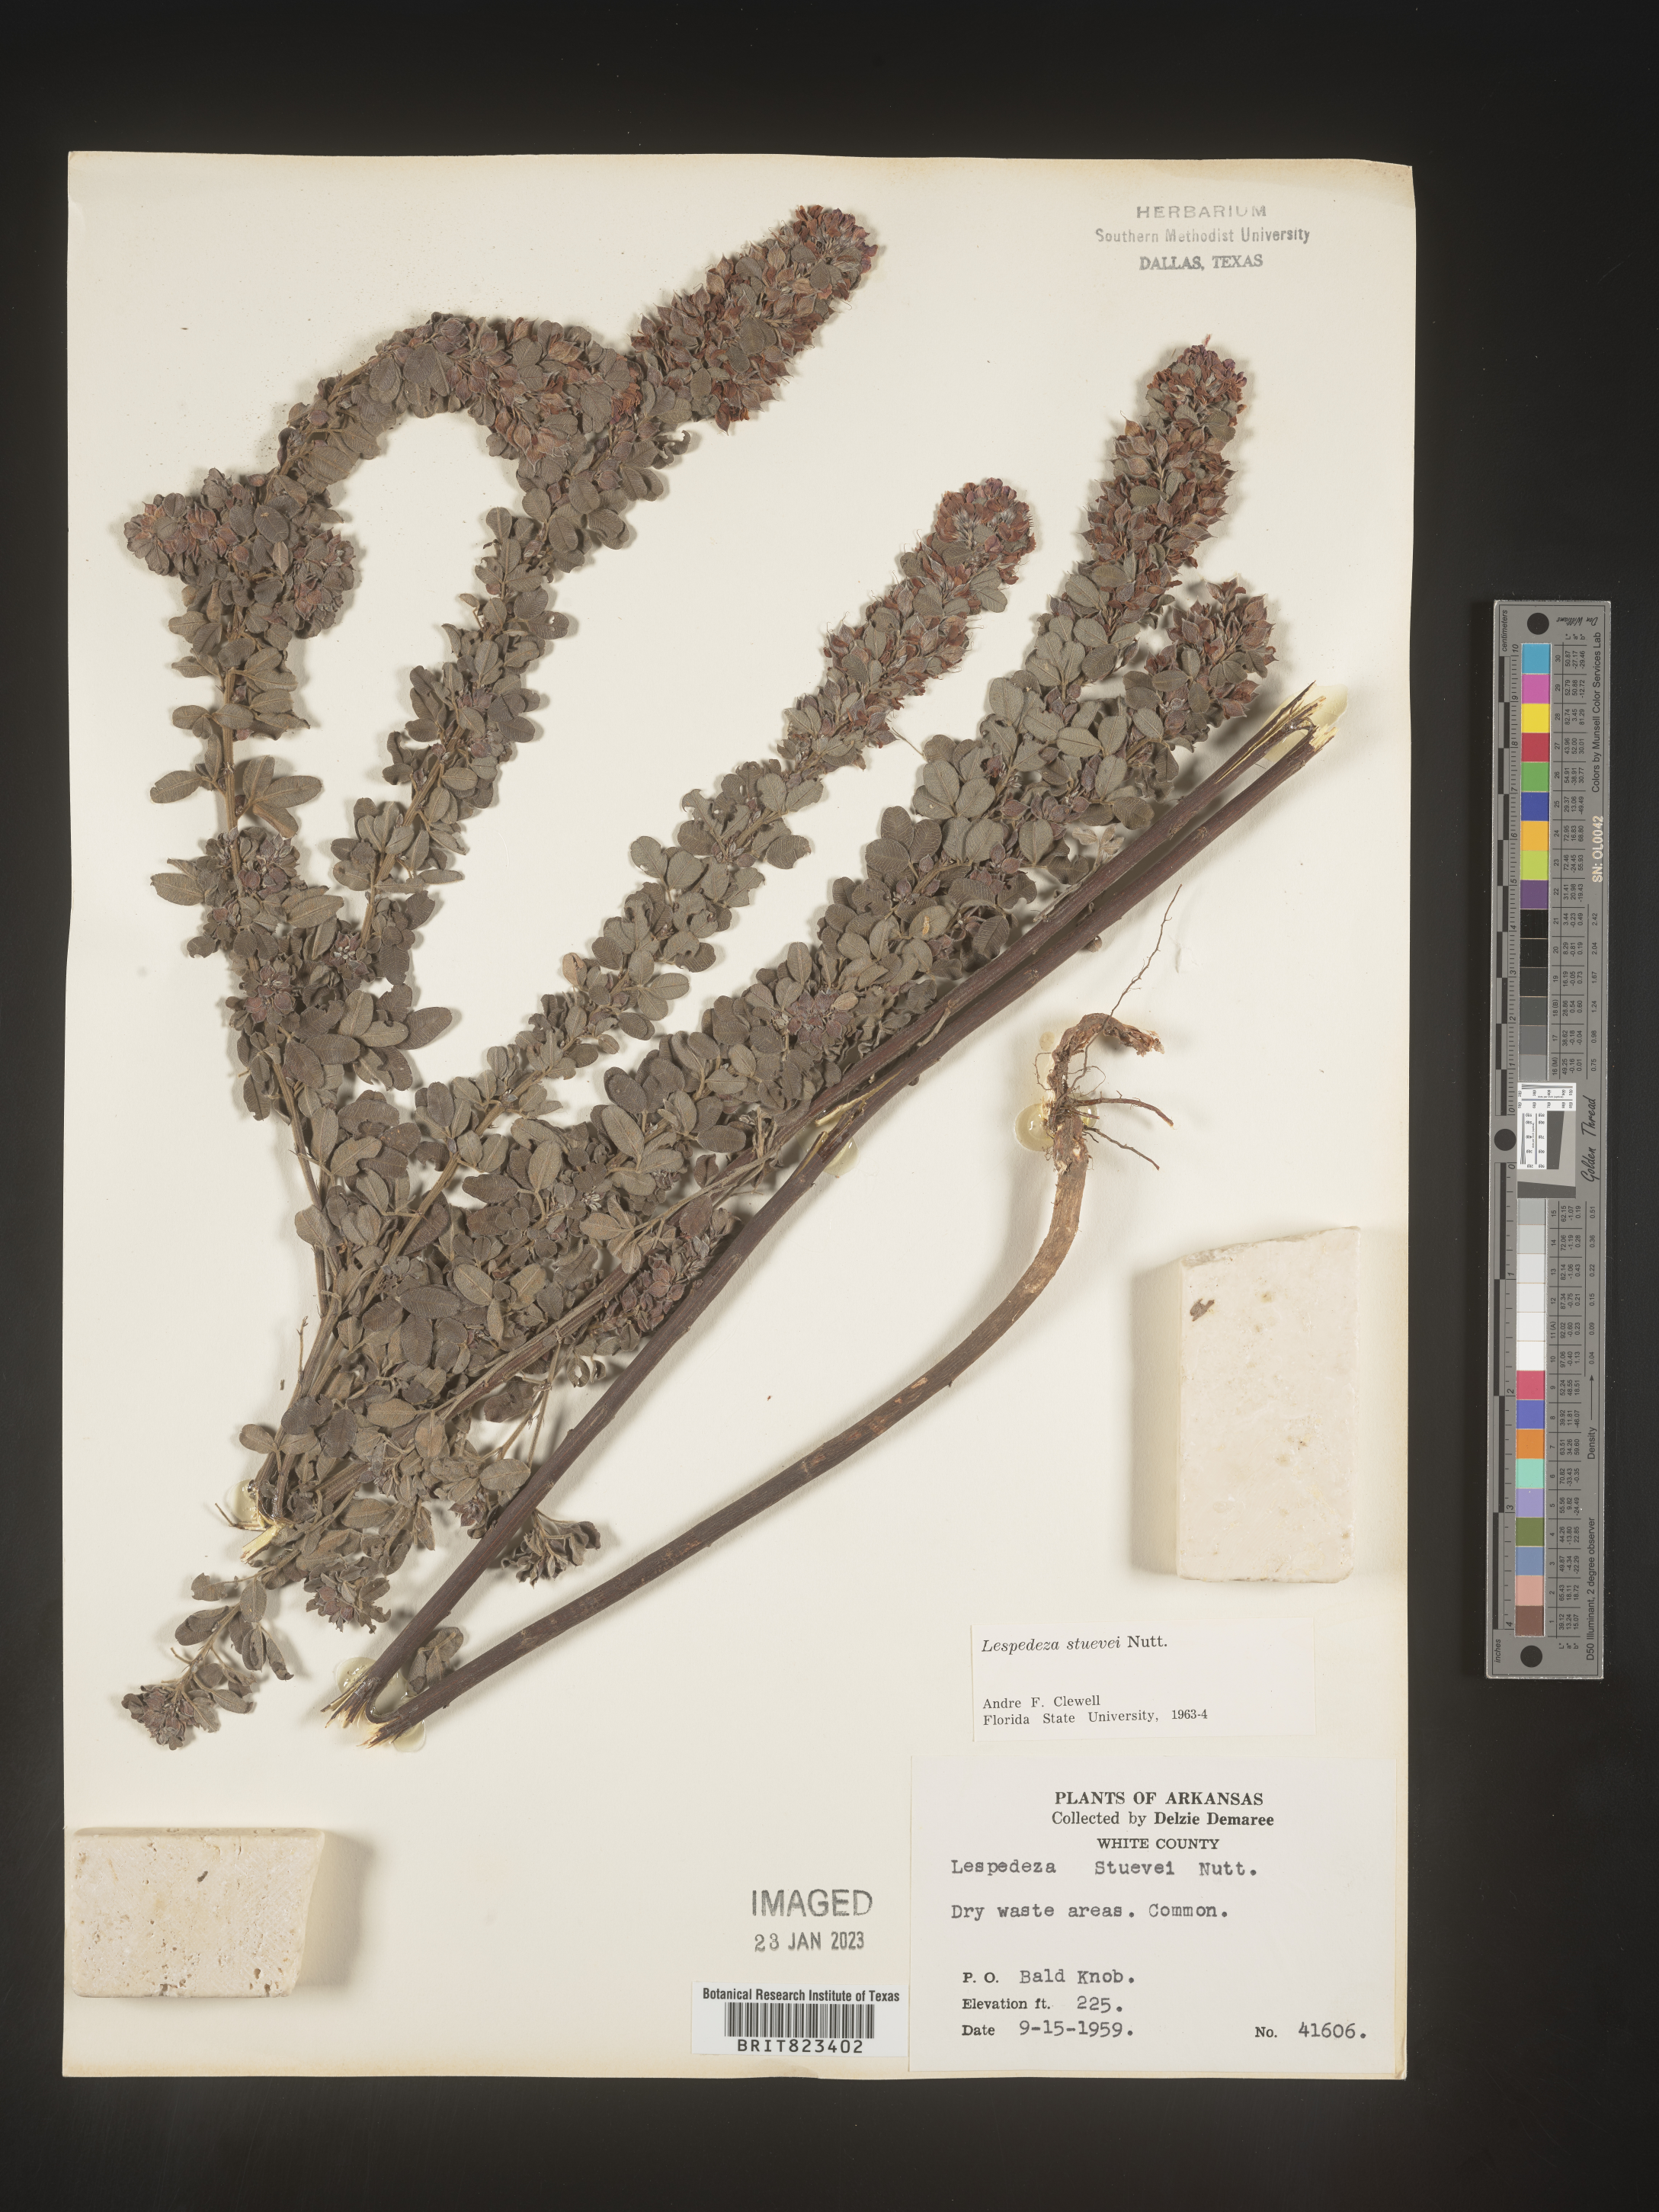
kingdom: Plantae
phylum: Tracheophyta
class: Magnoliopsida
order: Fabales
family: Fabaceae
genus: Lespedeza
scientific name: Lespedeza stuevei
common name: Tall bush-clover
